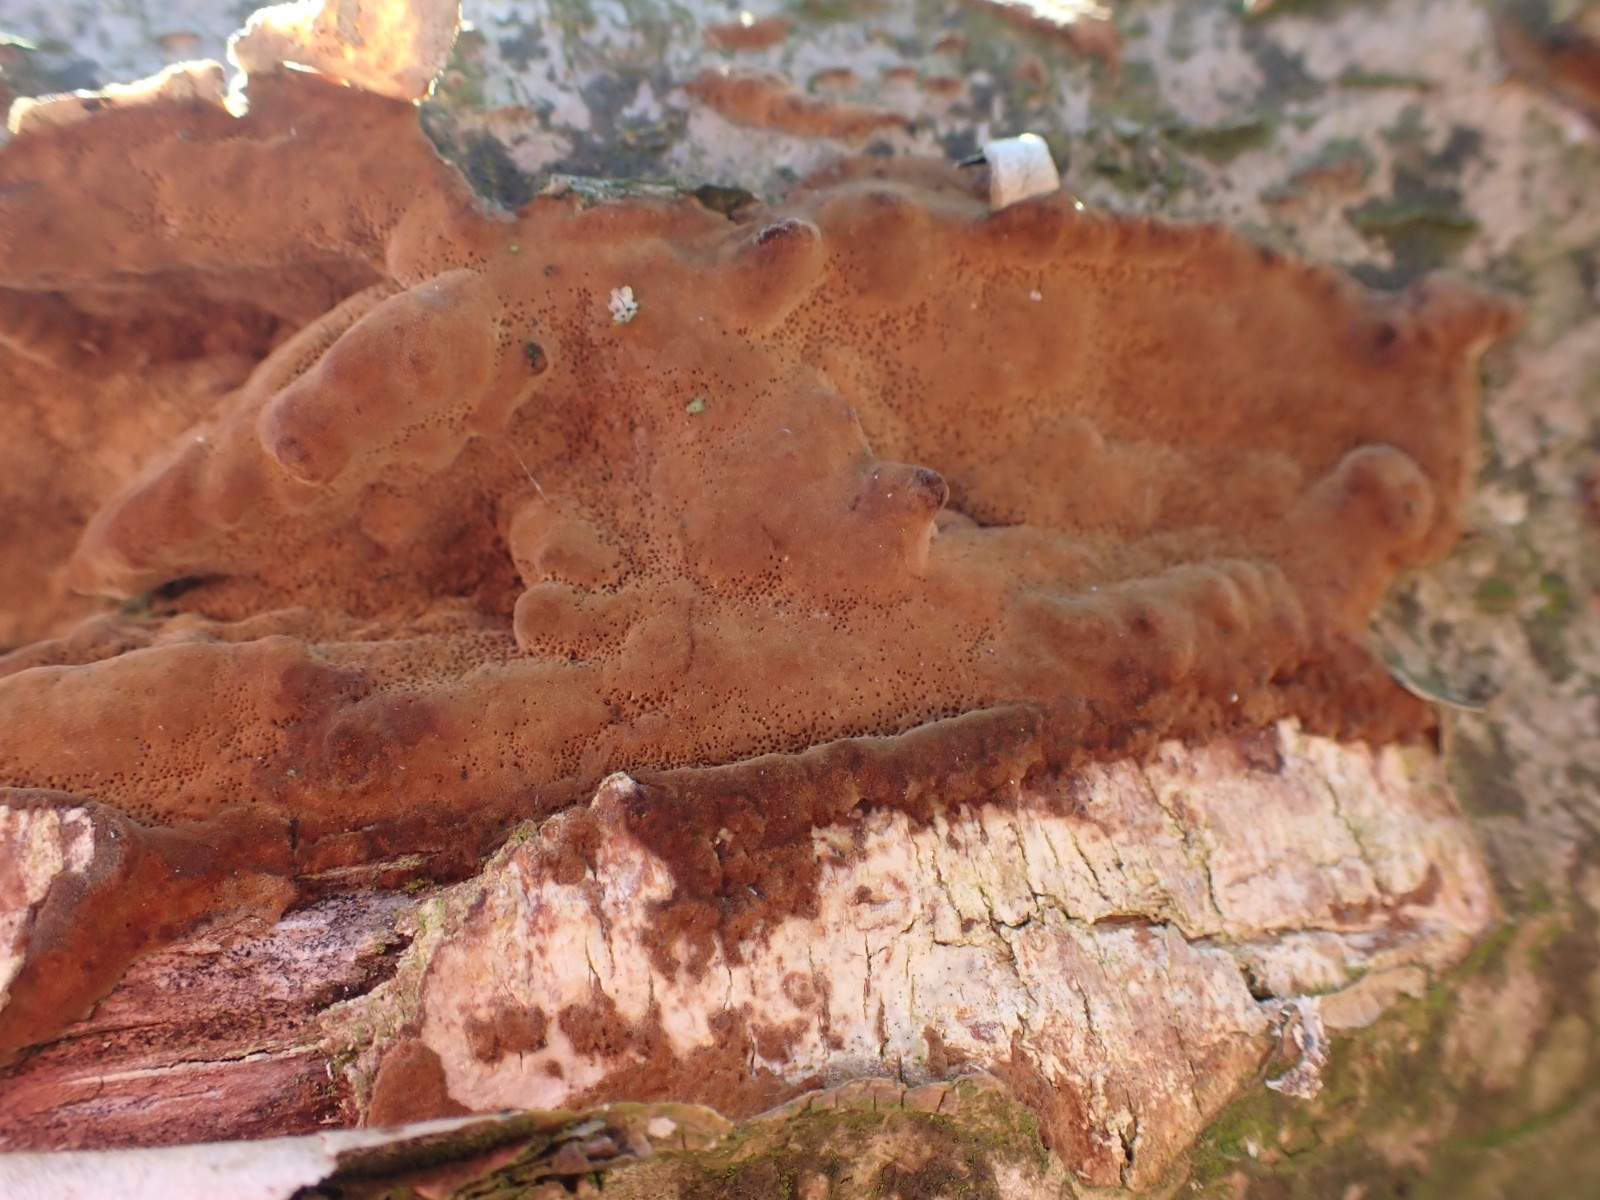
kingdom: Fungi
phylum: Basidiomycota
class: Agaricomycetes
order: Hymenochaetales
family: Hymenochaetaceae
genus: Fuscoporia
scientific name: Fuscoporia ferrea
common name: skorpe-ildporesvamp
